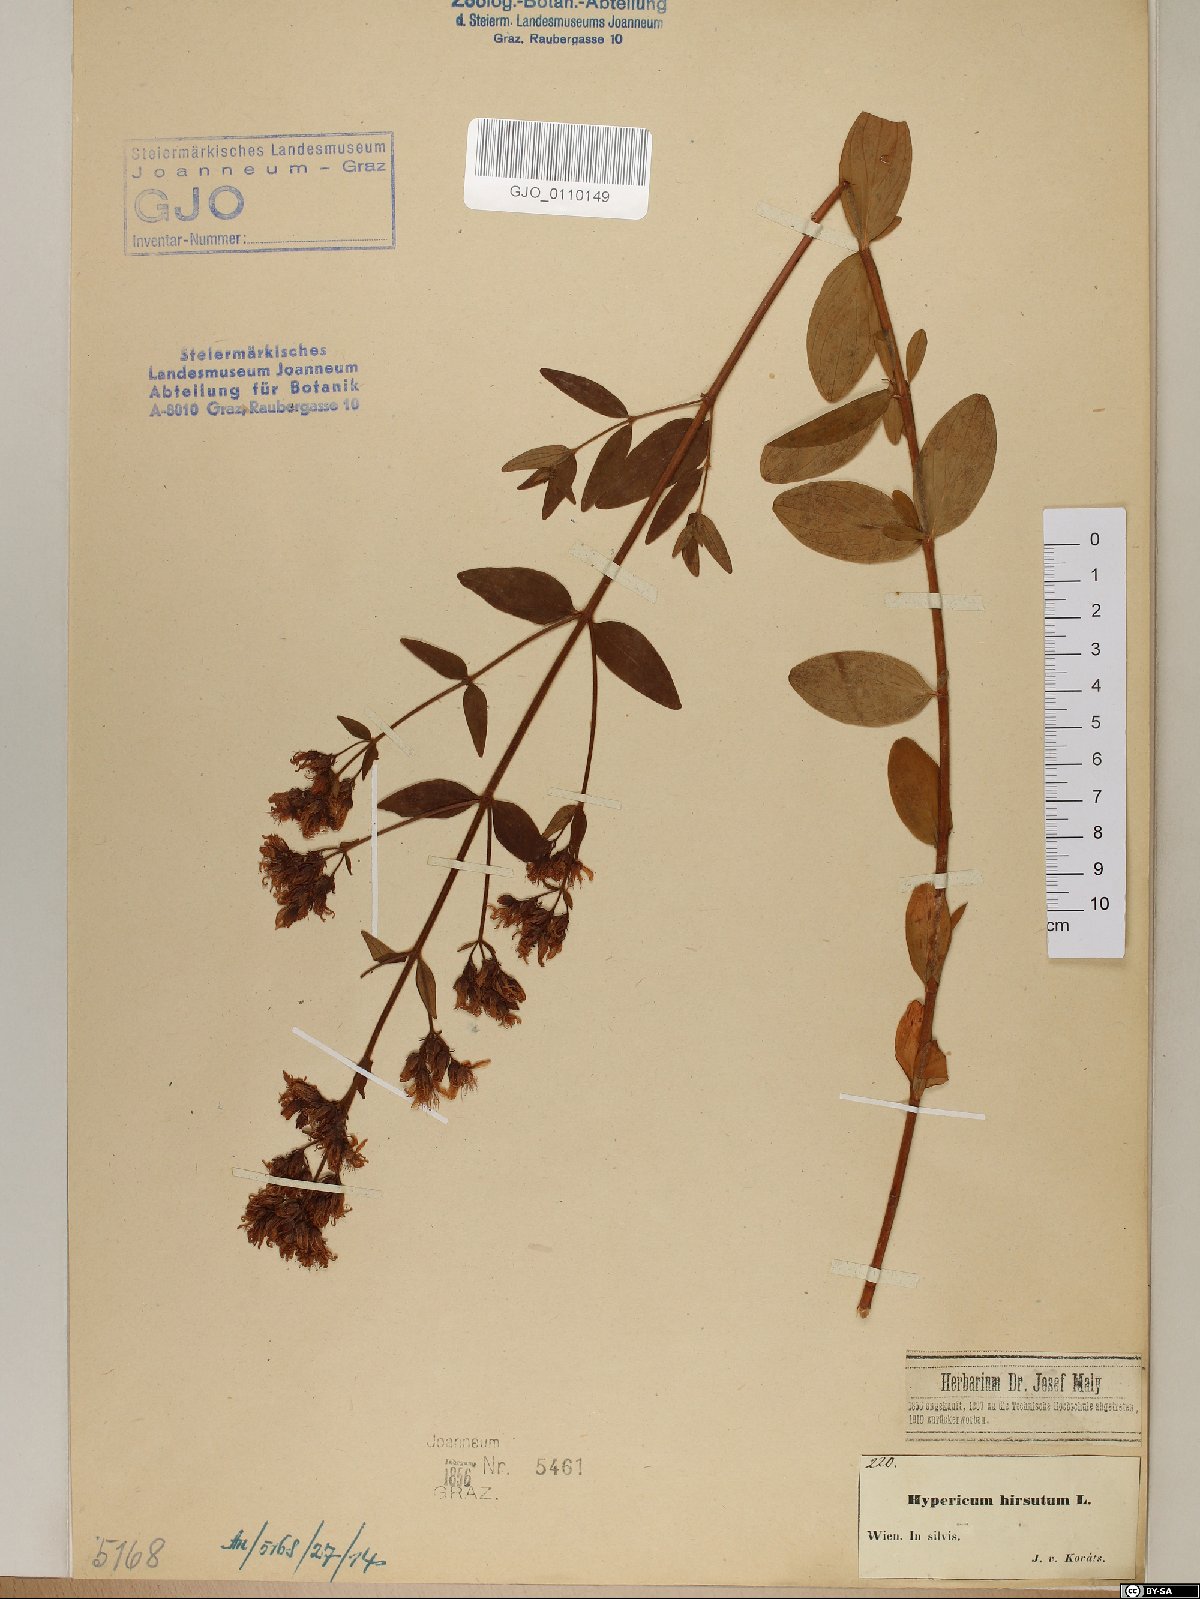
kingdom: Plantae
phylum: Tracheophyta
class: Magnoliopsida
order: Malpighiales
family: Hypericaceae
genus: Hypericum
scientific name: Hypericum hirsutum
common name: Hairy st. john's-wort
